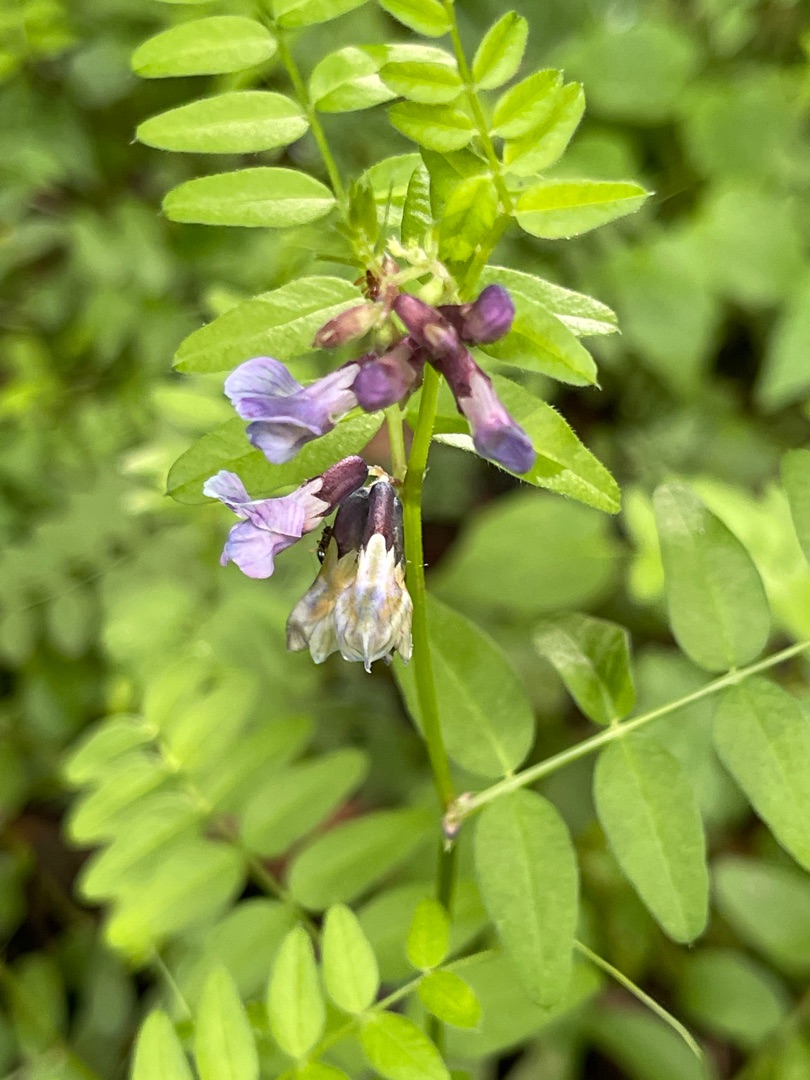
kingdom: Plantae
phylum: Tracheophyta
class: Magnoliopsida
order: Fabales
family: Fabaceae
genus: Vicia
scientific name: Vicia sepium
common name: Gærde-vikke
